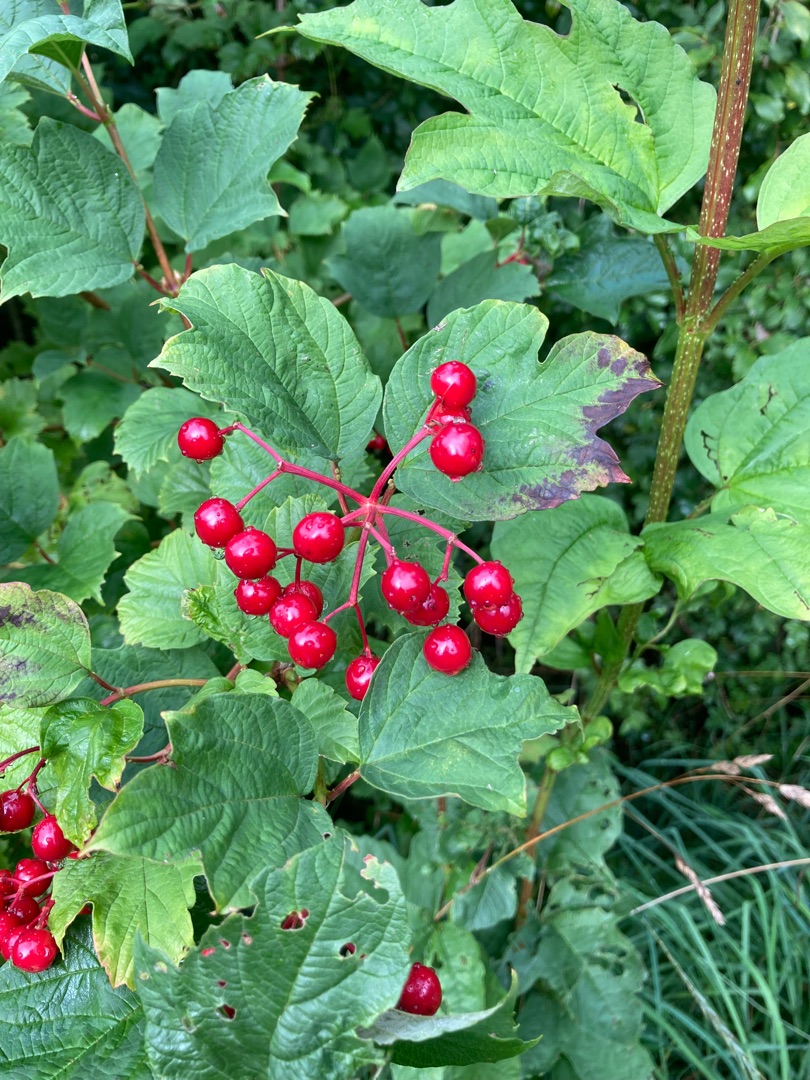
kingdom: Plantae
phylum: Tracheophyta
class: Magnoliopsida
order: Dipsacales
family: Viburnaceae
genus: Viburnum
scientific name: Viburnum opulus
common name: Kvalkved
